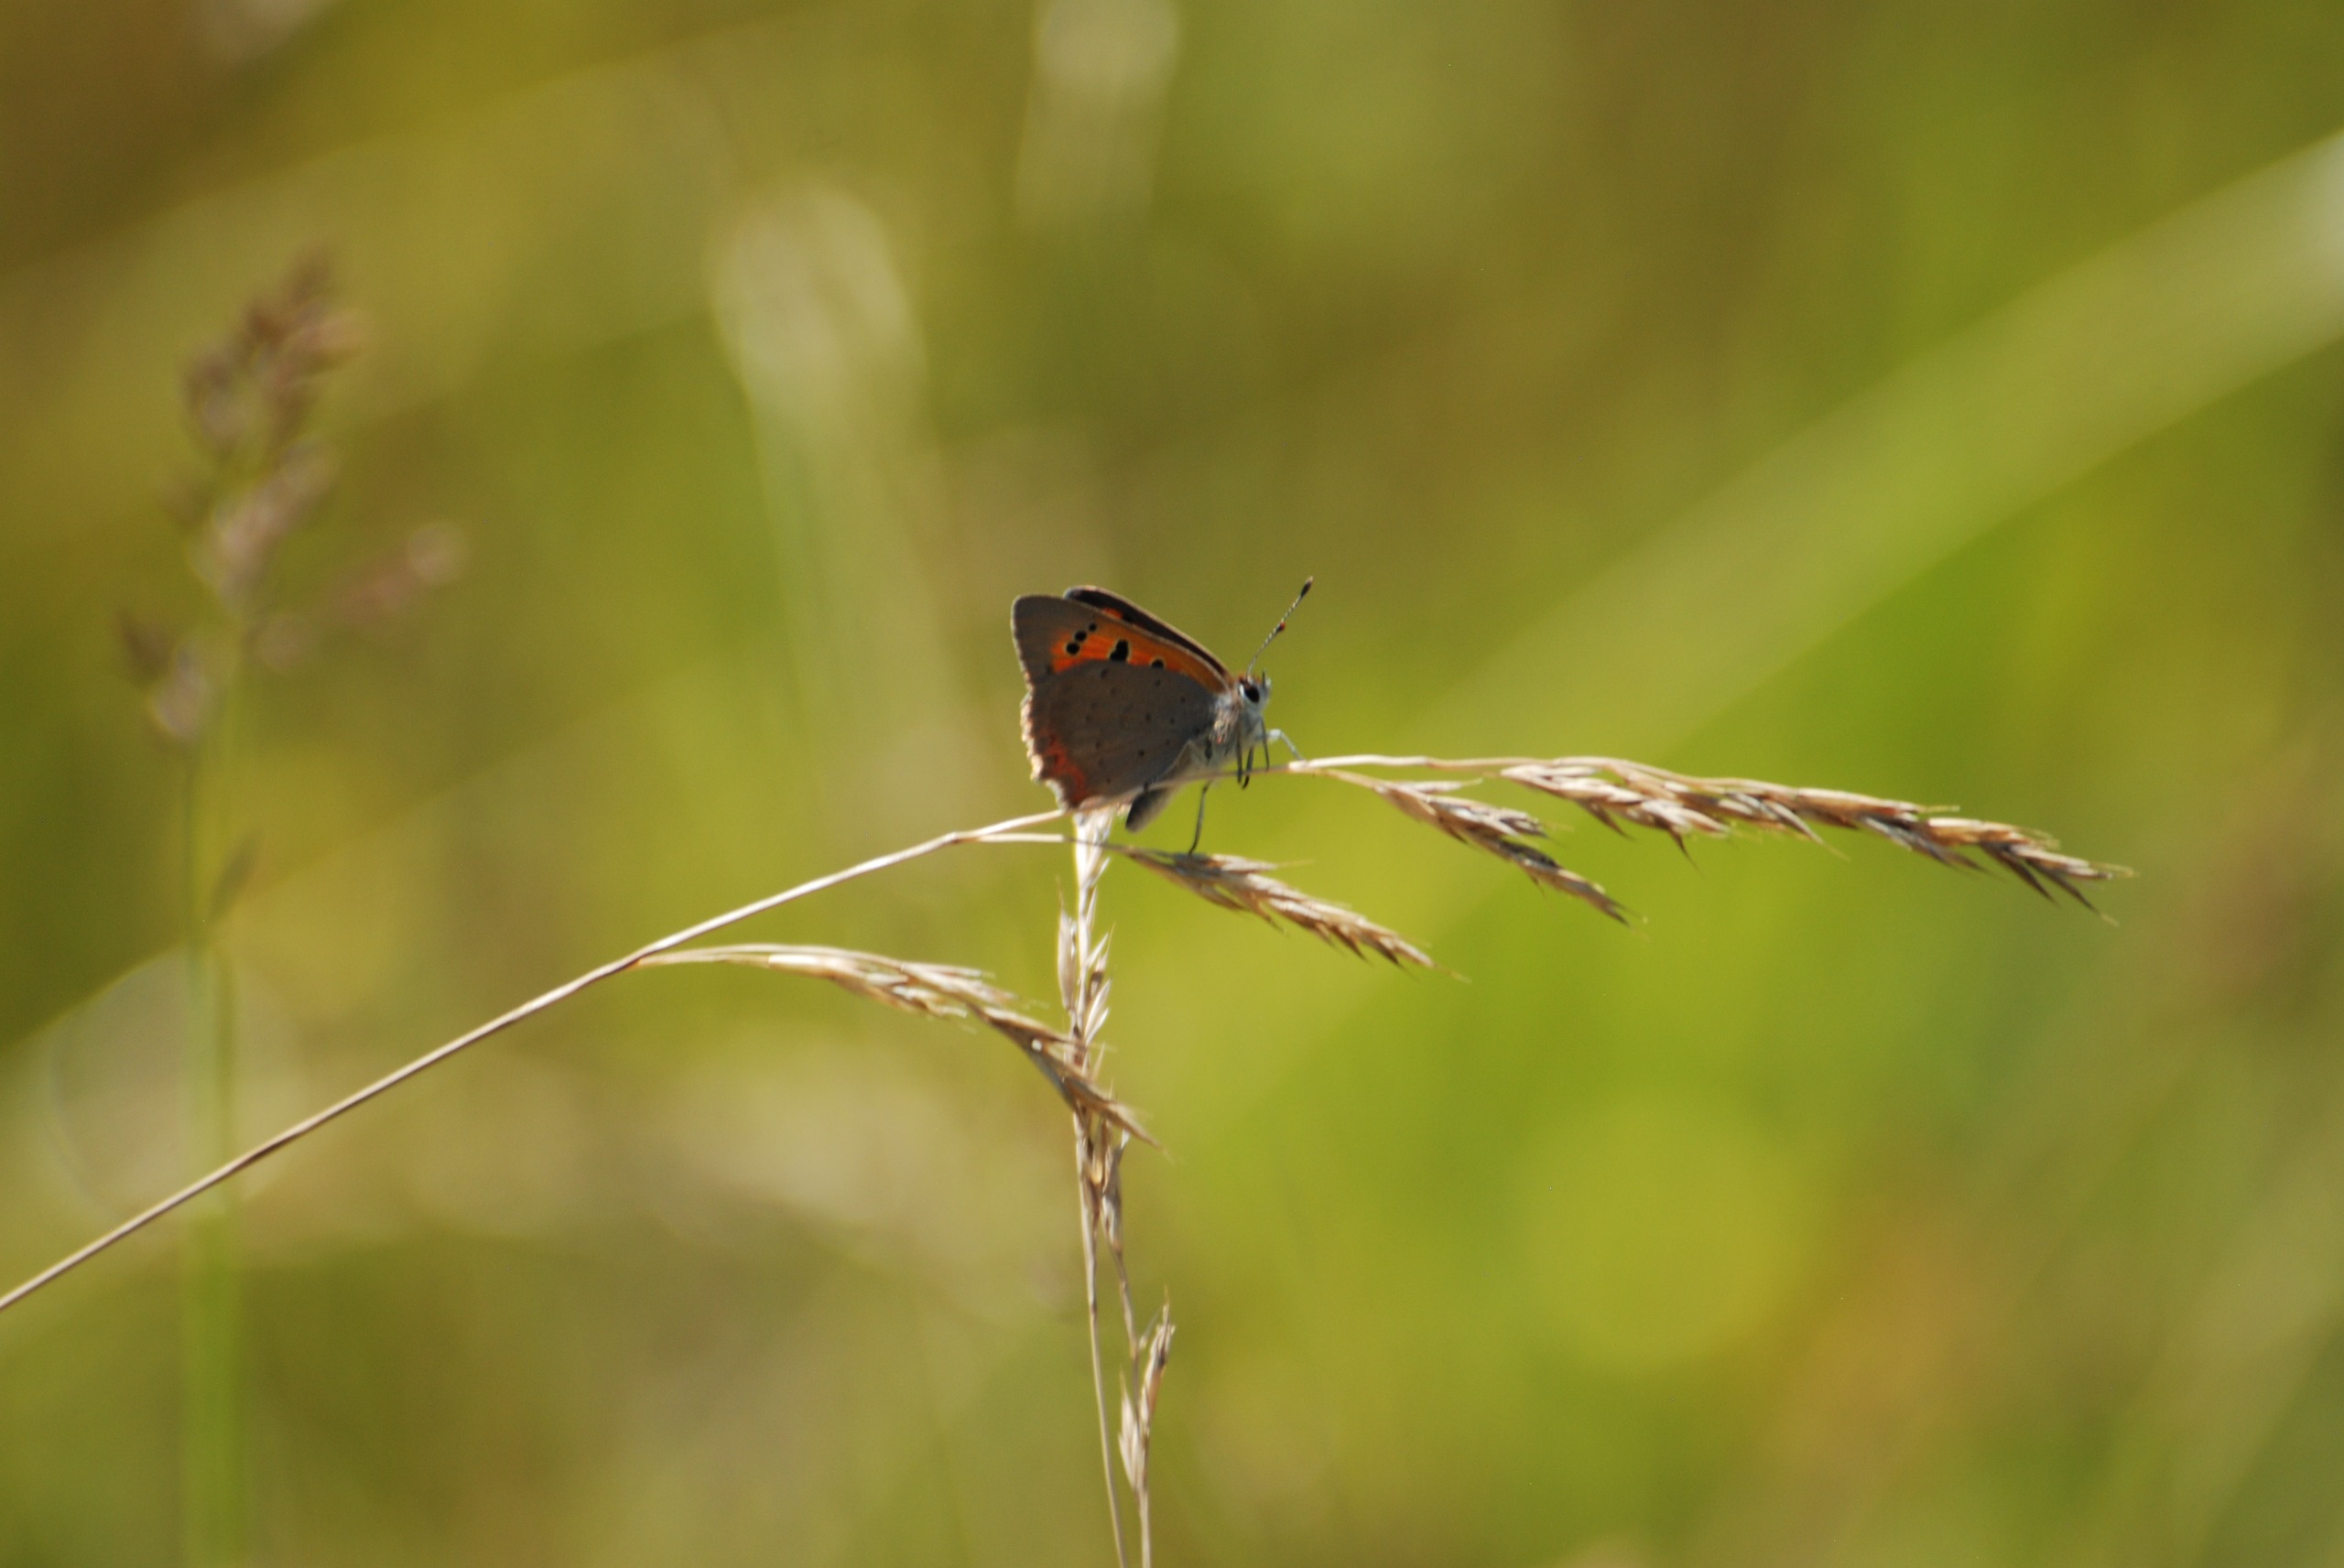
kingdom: Animalia
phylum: Arthropoda
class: Insecta
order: Lepidoptera
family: Lycaenidae
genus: Lycaena
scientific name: Lycaena phlaeas
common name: Lille ildfugl
